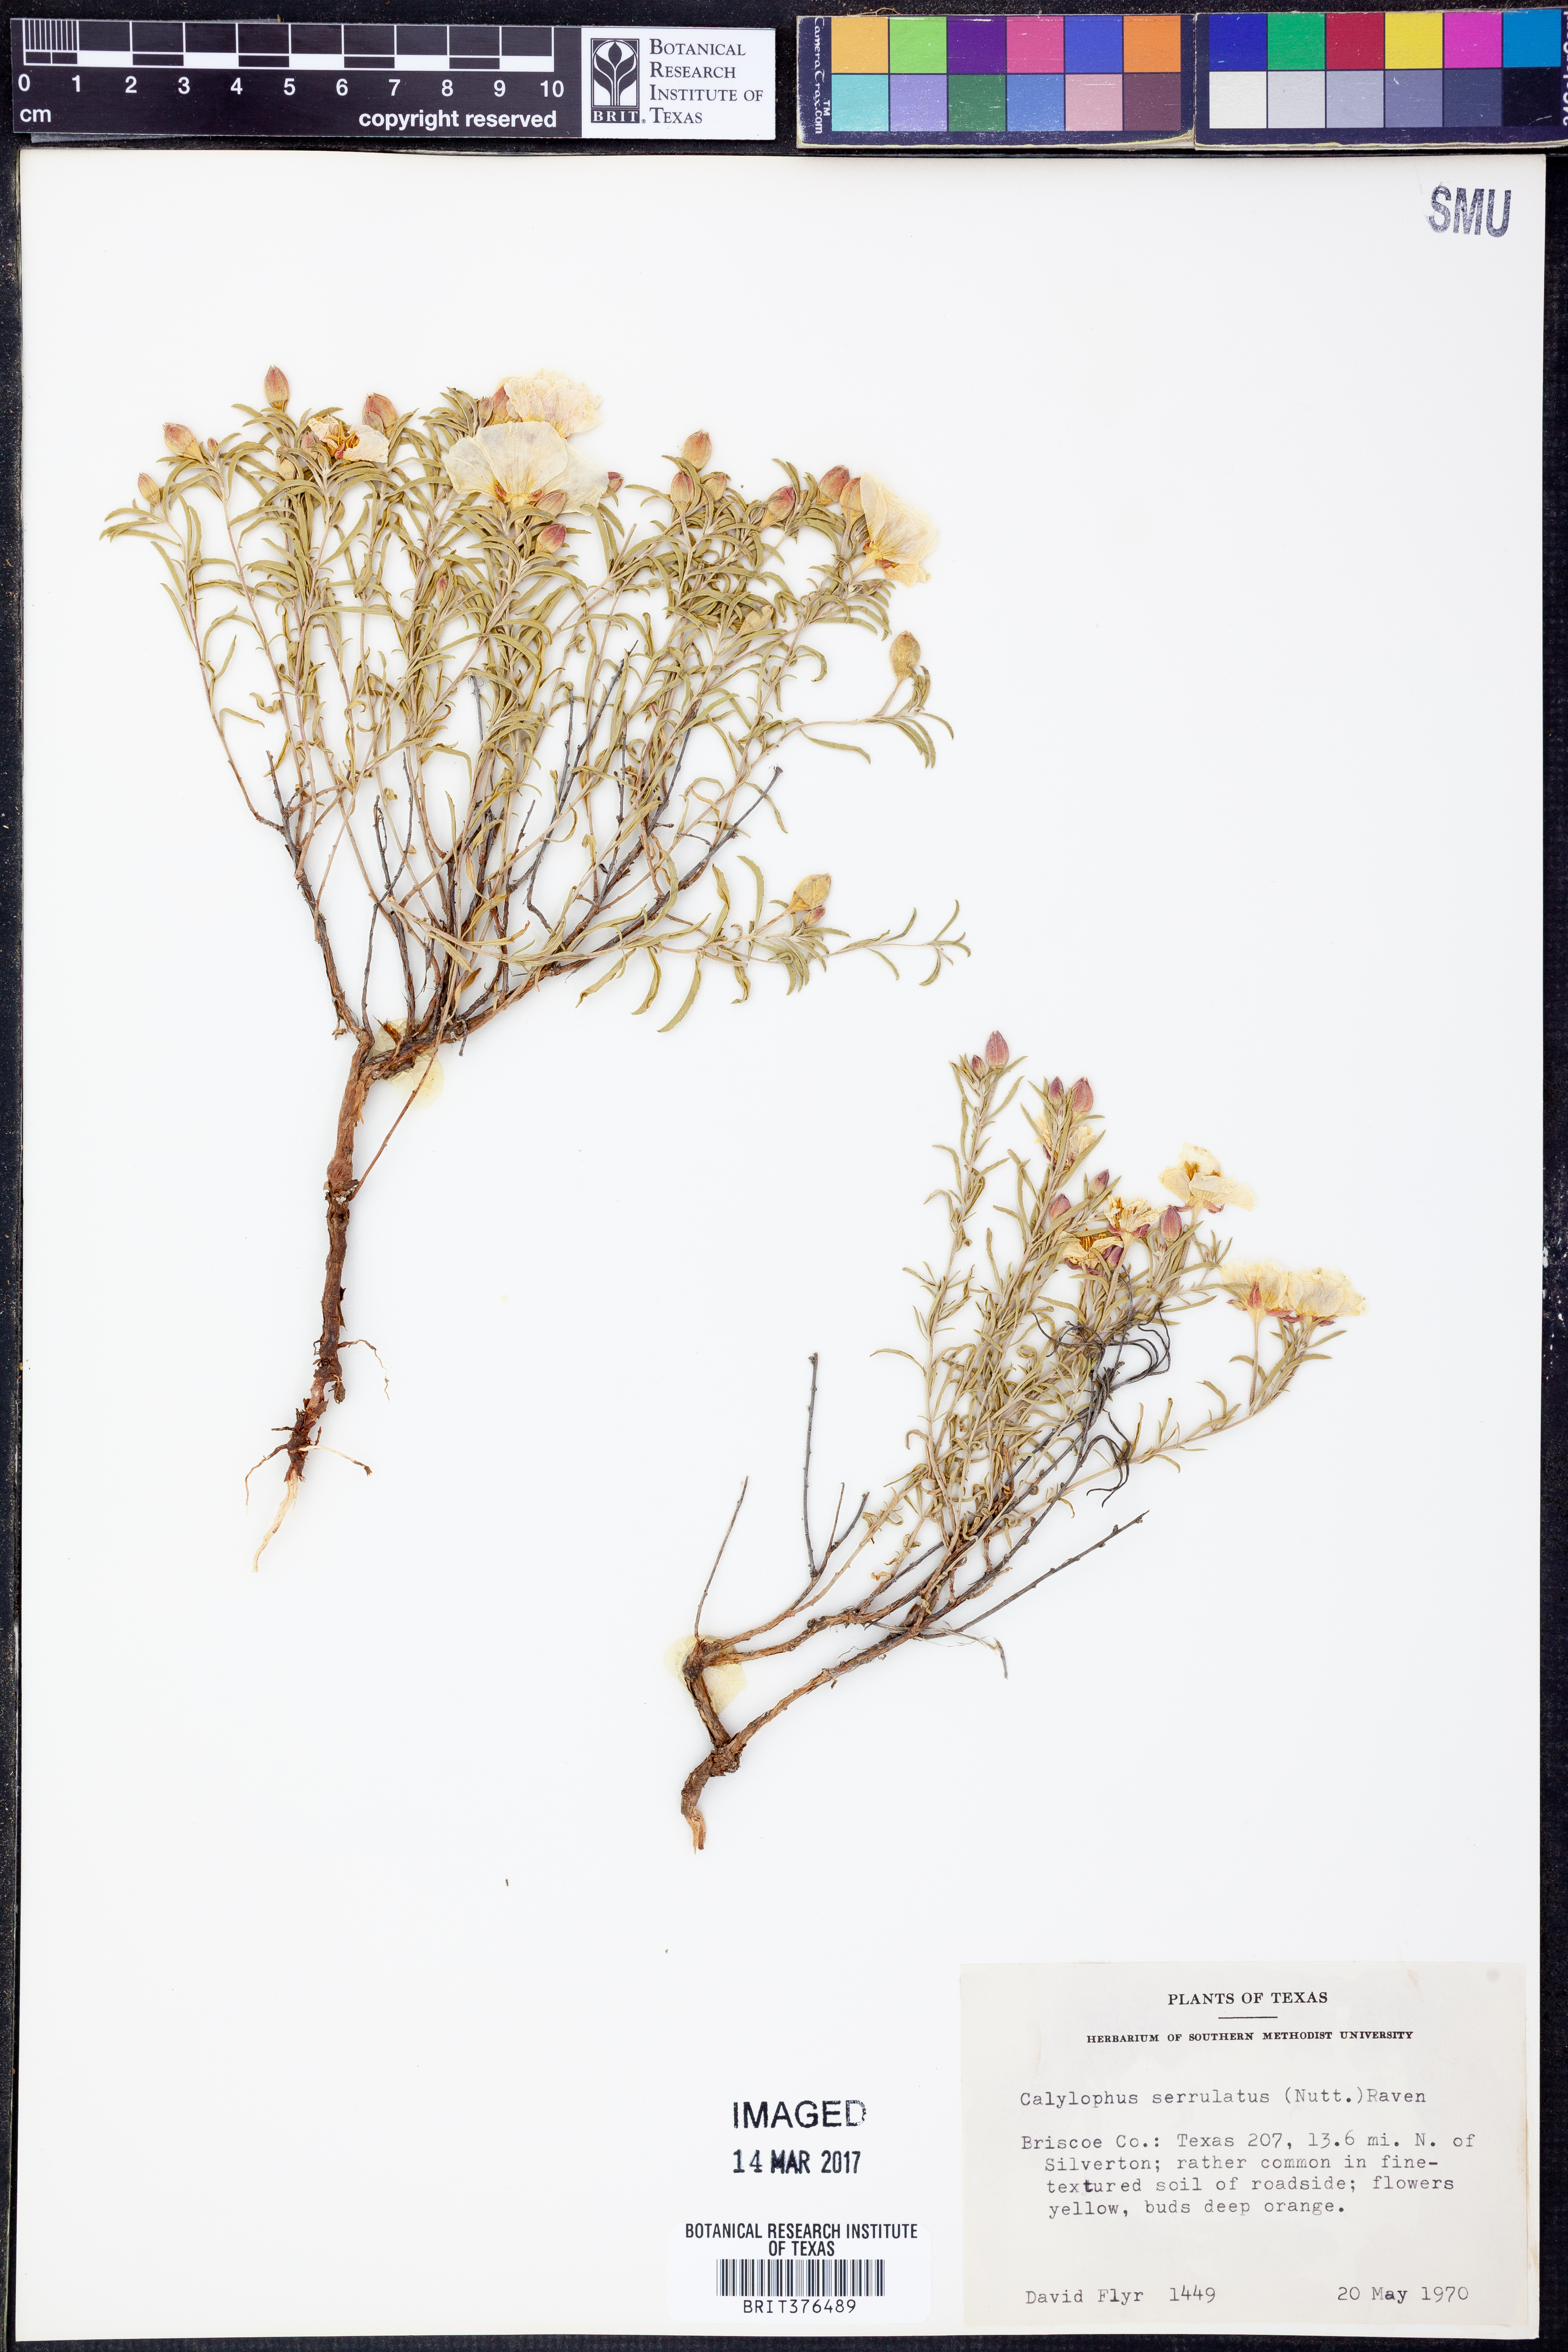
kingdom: Plantae
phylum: Tracheophyta
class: Magnoliopsida
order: Myrtales
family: Onagraceae
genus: Oenothera
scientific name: Oenothera serrulata
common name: Half-shrub calylophus
